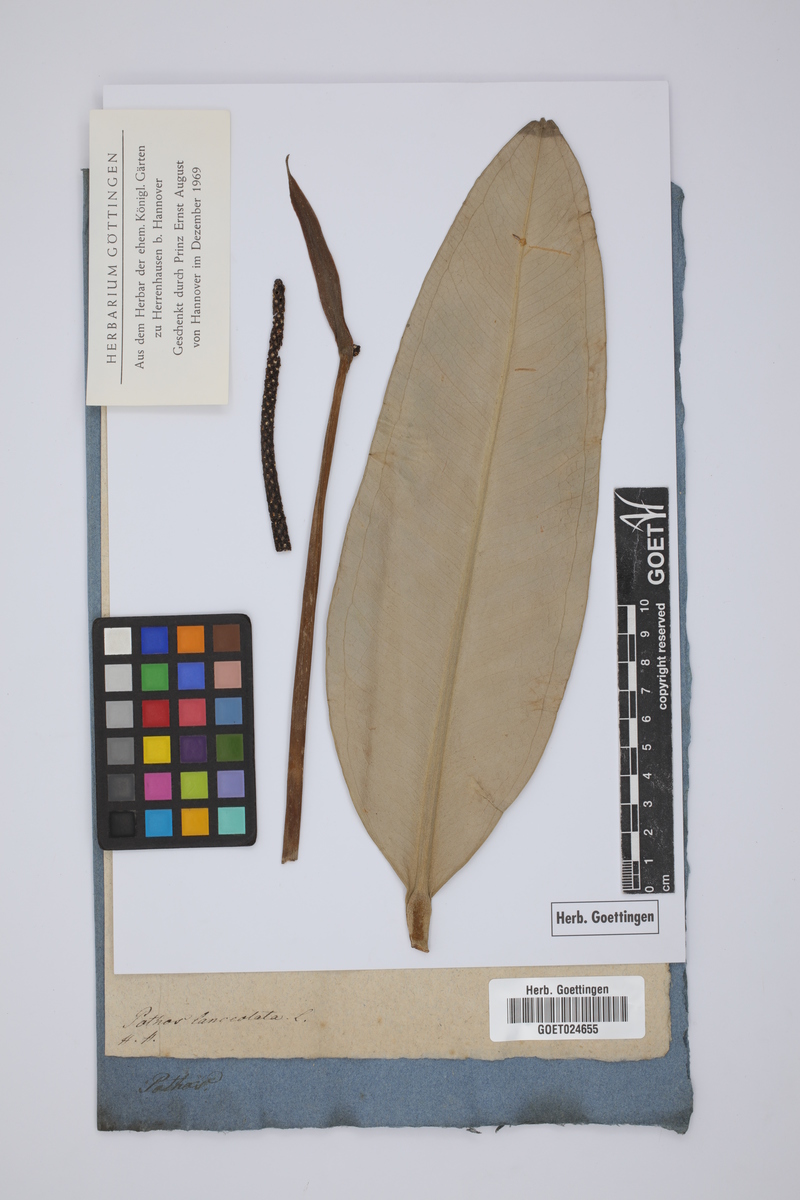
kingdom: Plantae
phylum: Tracheophyta
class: Liliopsida
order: Alismatales
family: Araceae
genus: Anthurium
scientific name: Anthurium acaule
